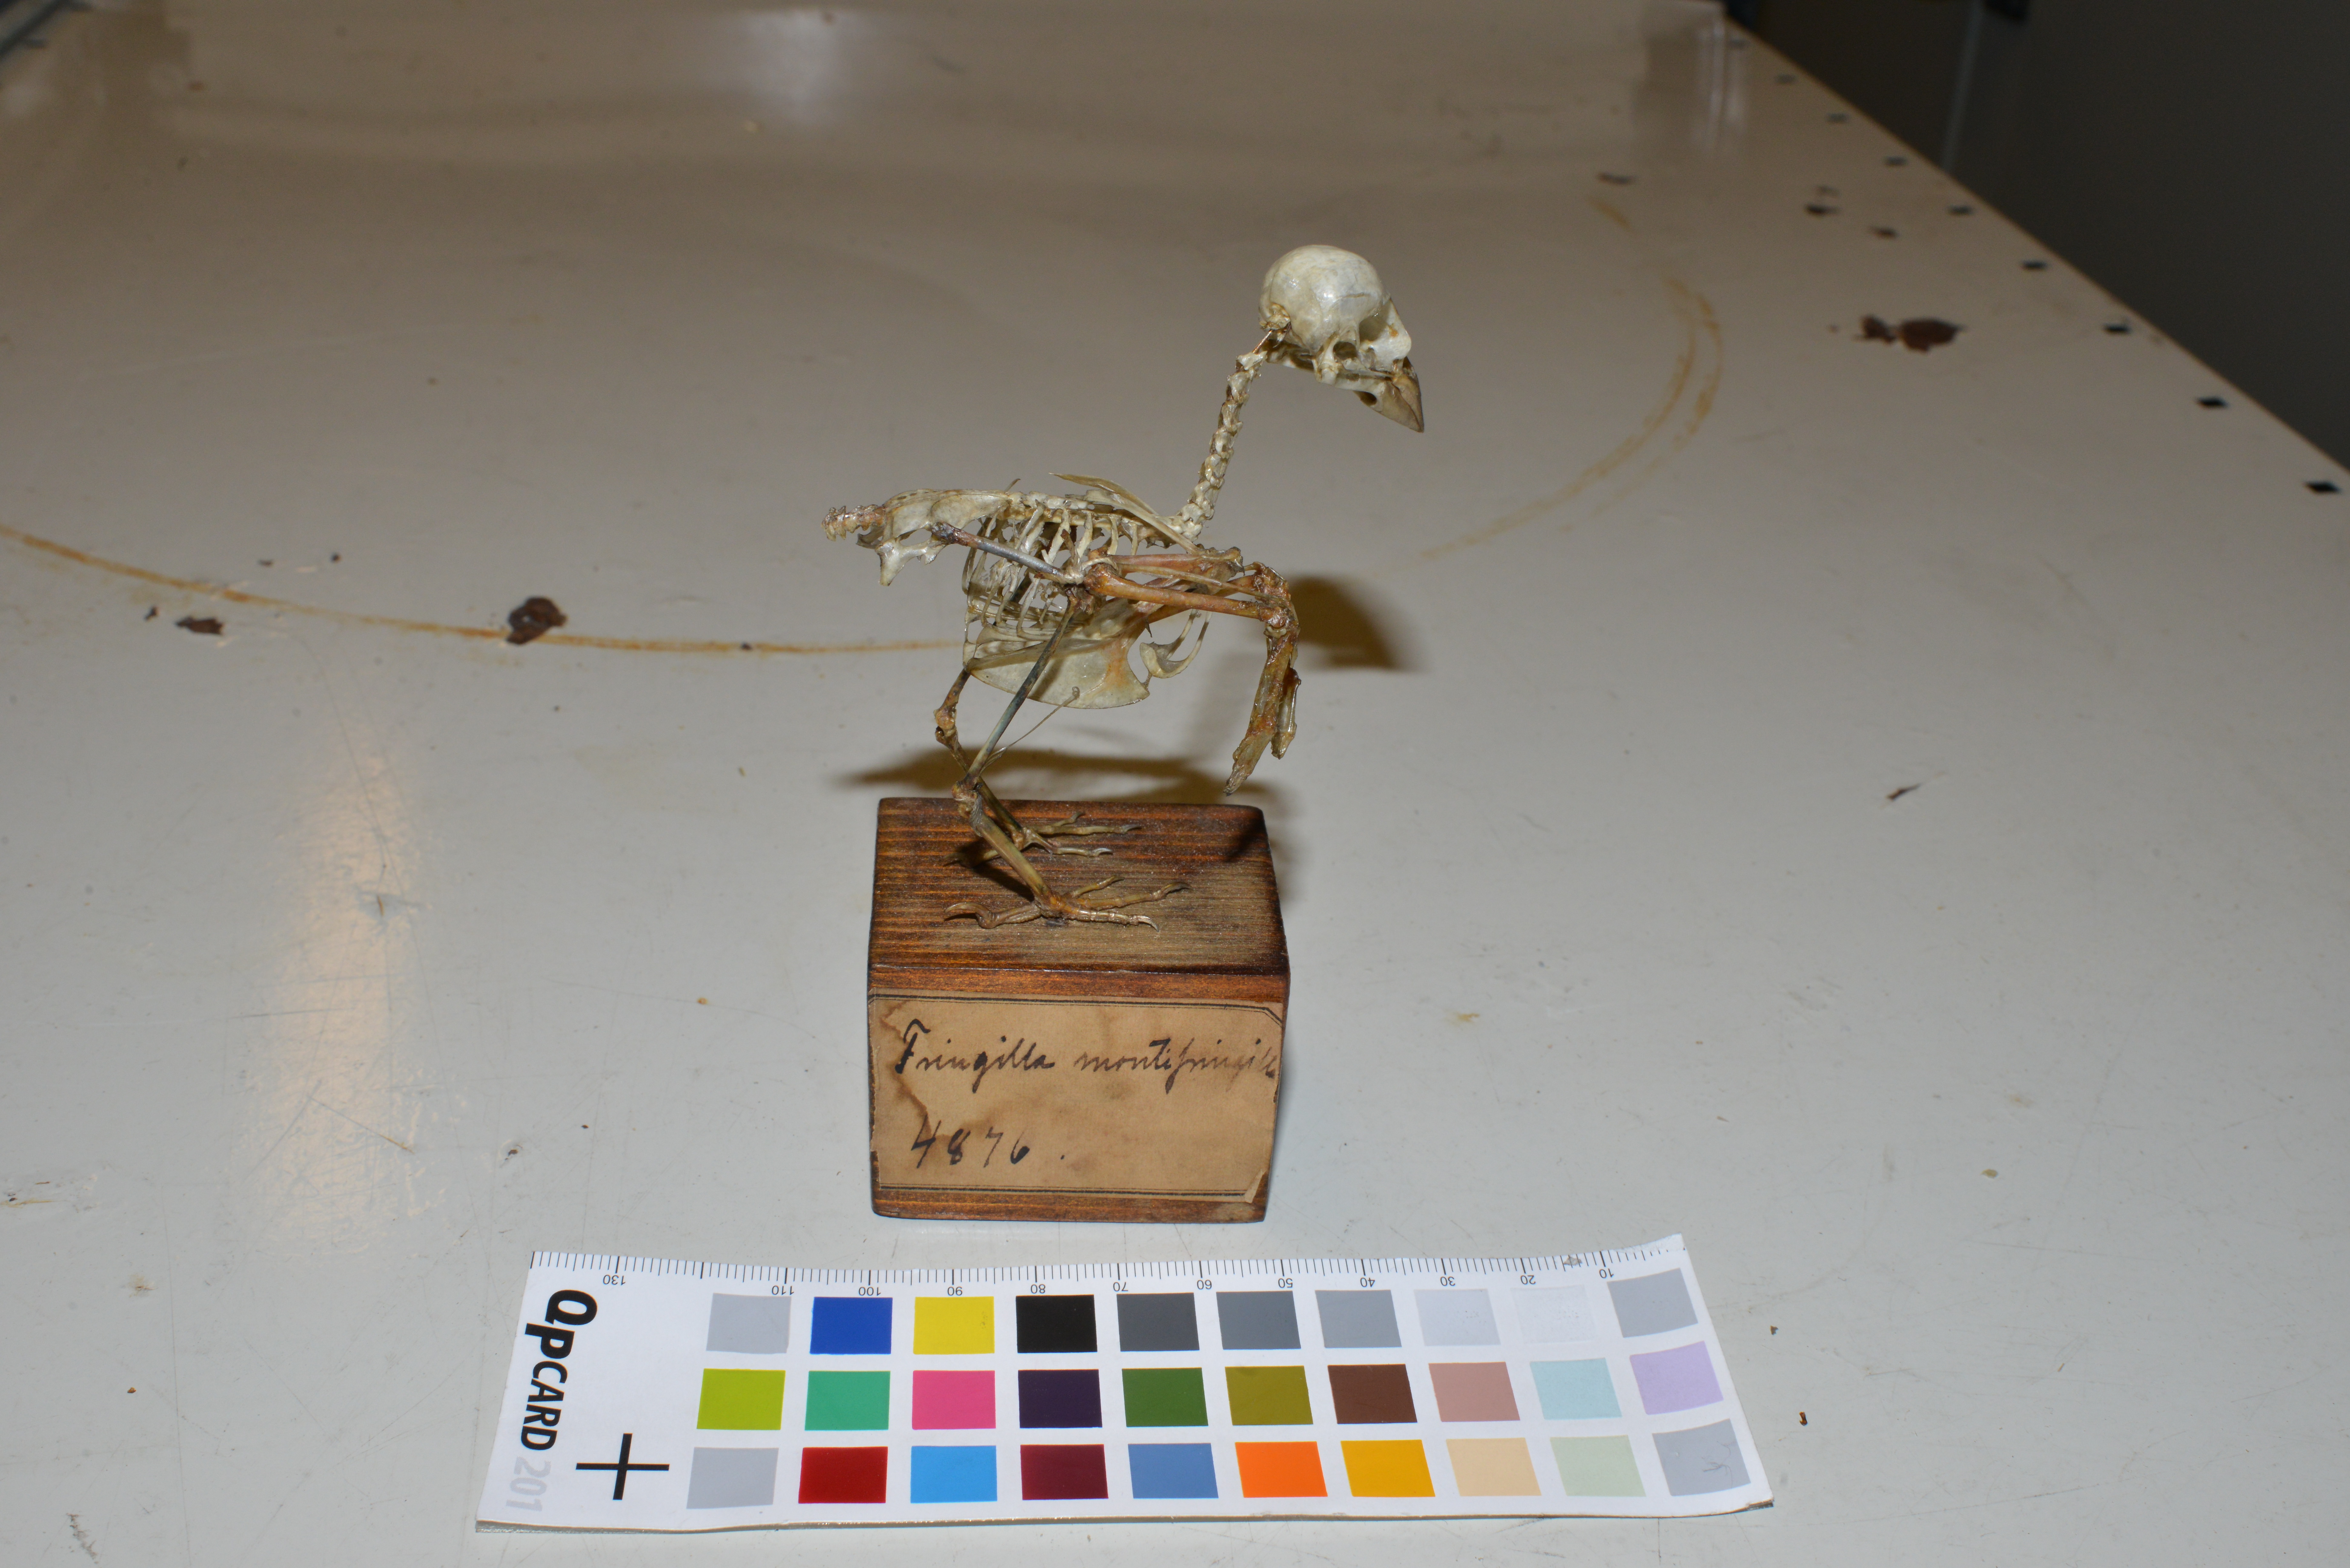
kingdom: Animalia
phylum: Chordata
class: Aves
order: Passeriformes
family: Fringillidae
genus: Fringilla
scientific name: Fringilla montifringilla
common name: Brambling
